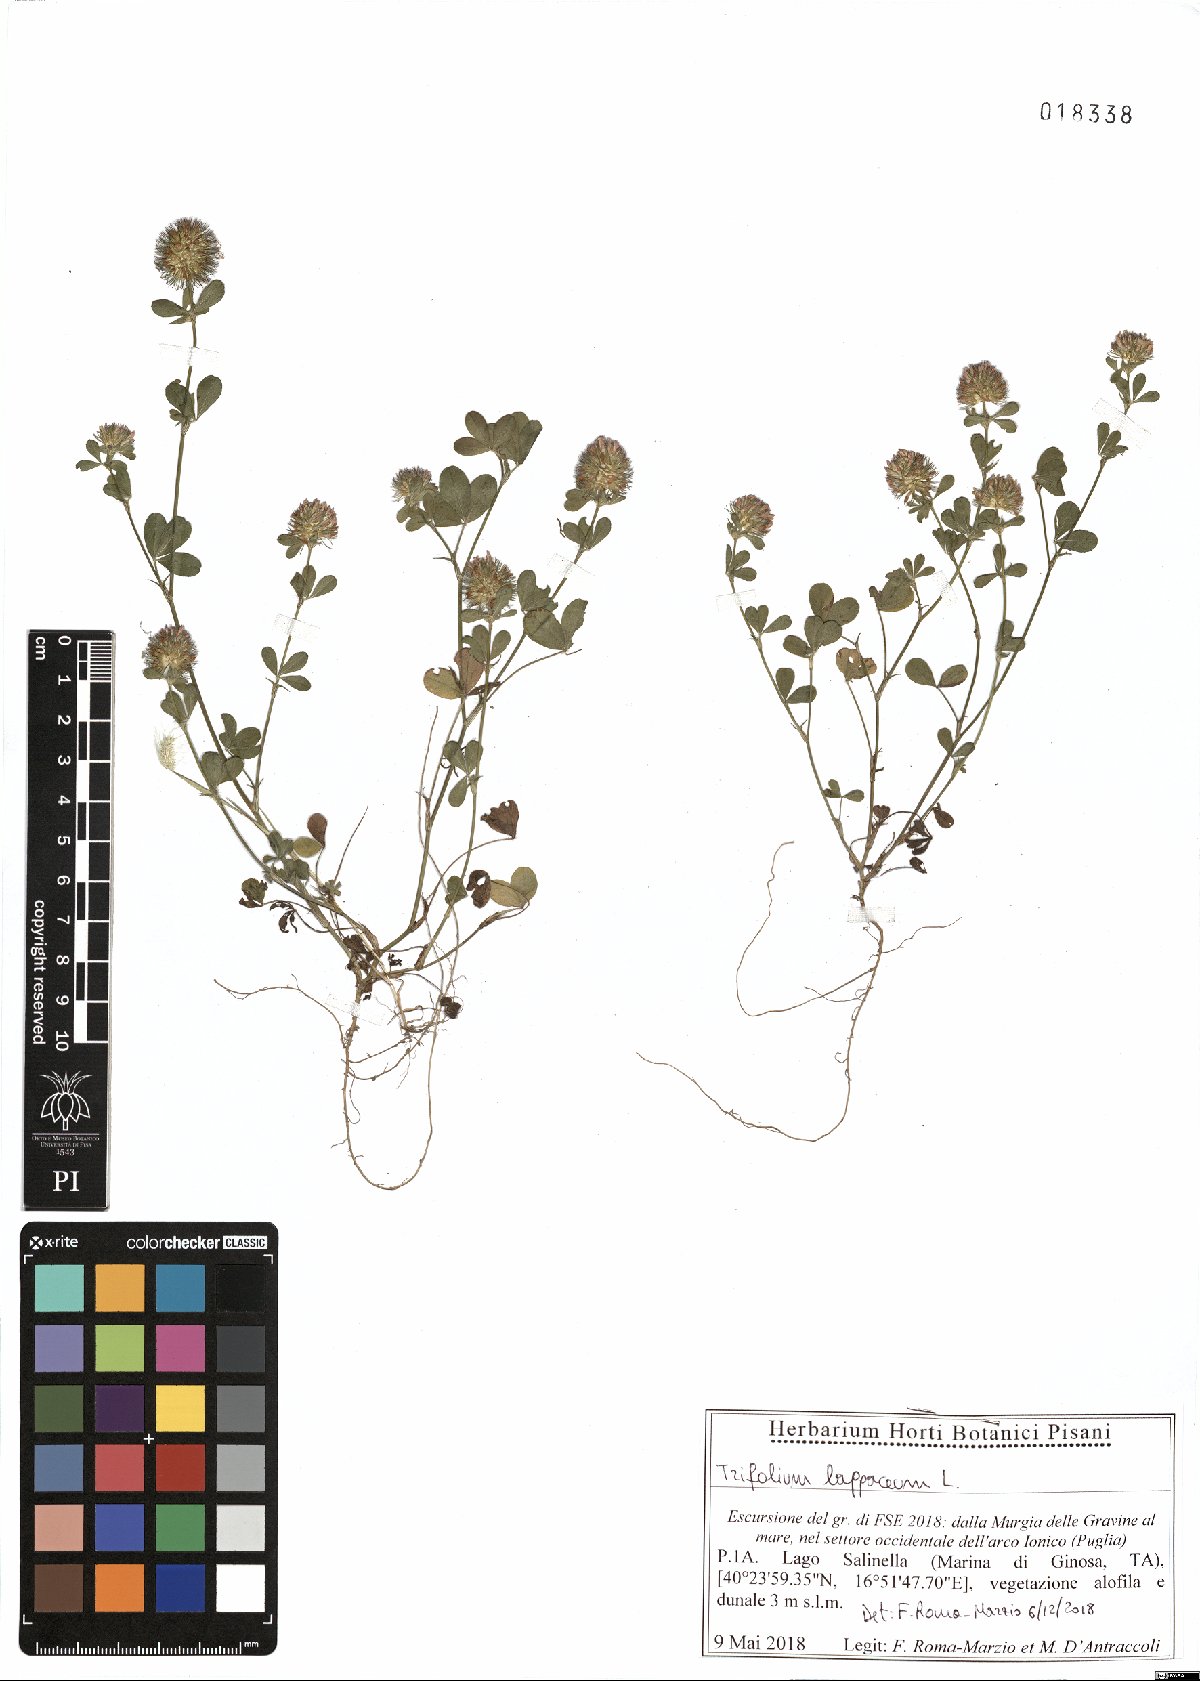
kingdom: Plantae
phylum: Tracheophyta
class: Magnoliopsida
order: Fabales
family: Fabaceae
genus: Trifolium
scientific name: Trifolium lappaceum
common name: Bur clover
